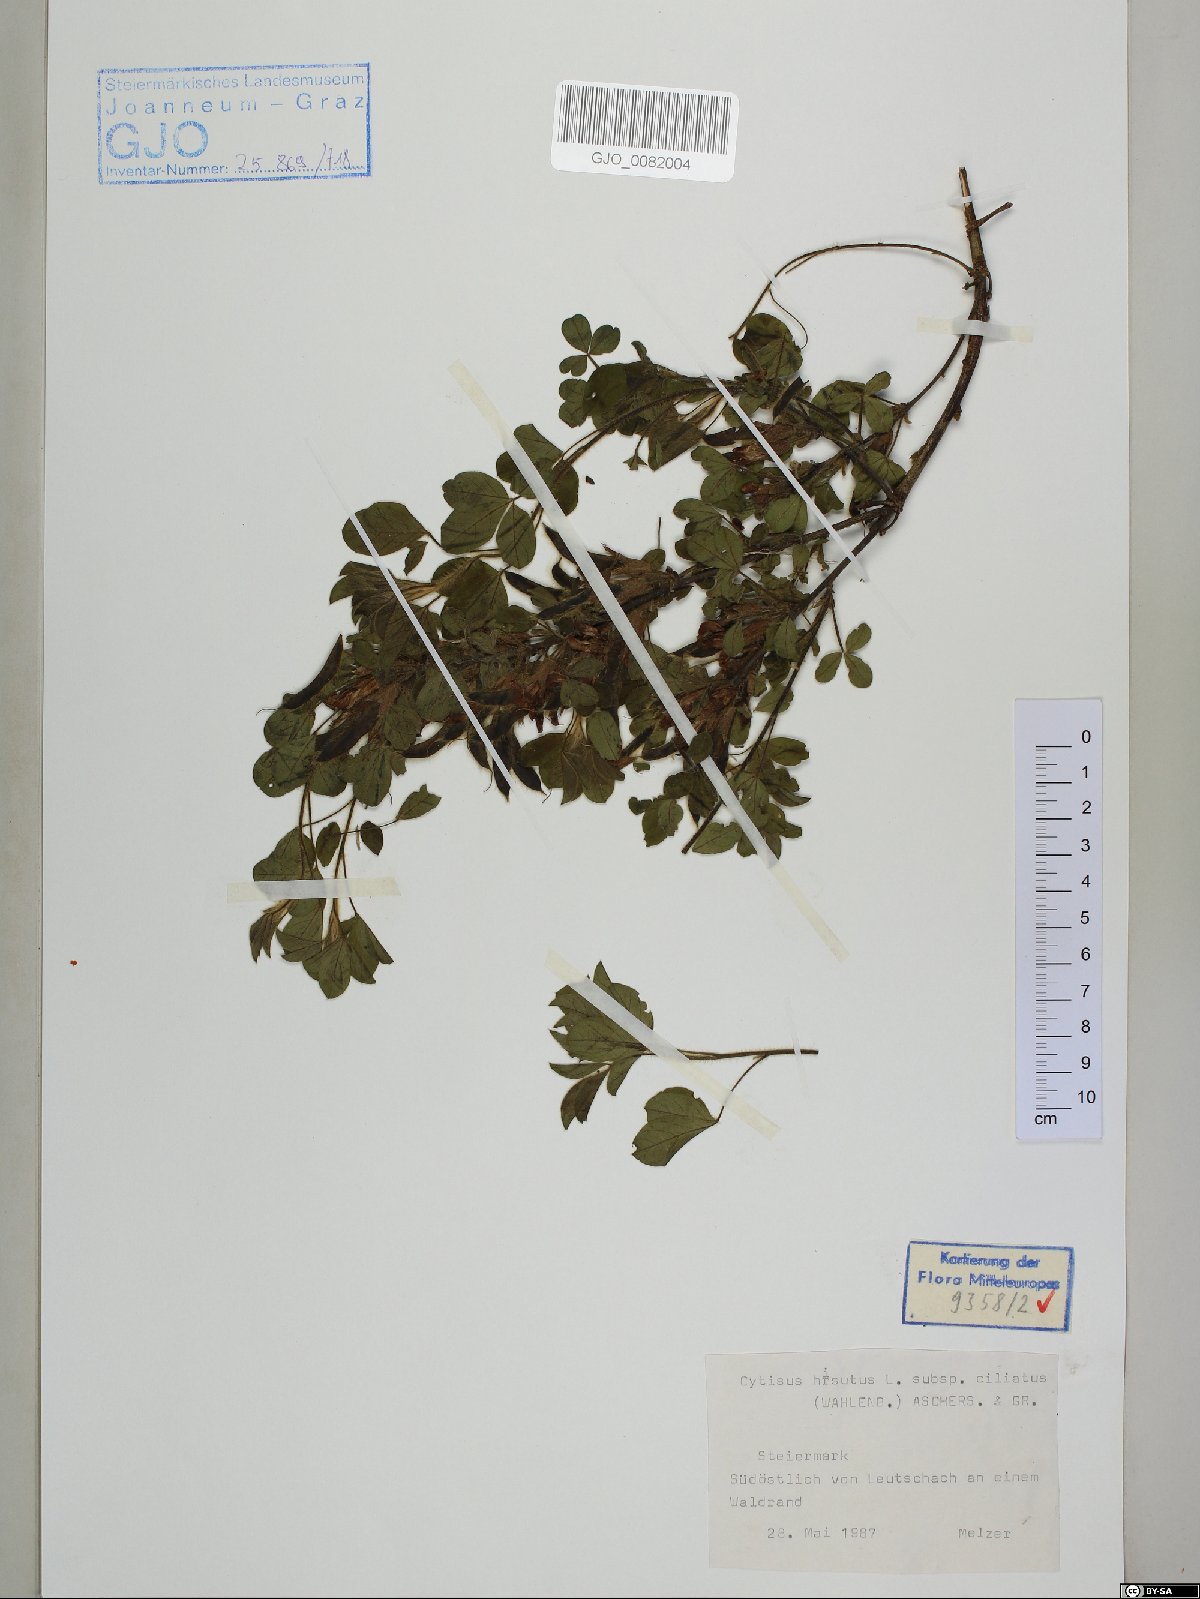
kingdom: Plantae
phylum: Tracheophyta
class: Magnoliopsida
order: Fabales
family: Fabaceae
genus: Chamaecytisus
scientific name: Chamaecytisus hirsutus
